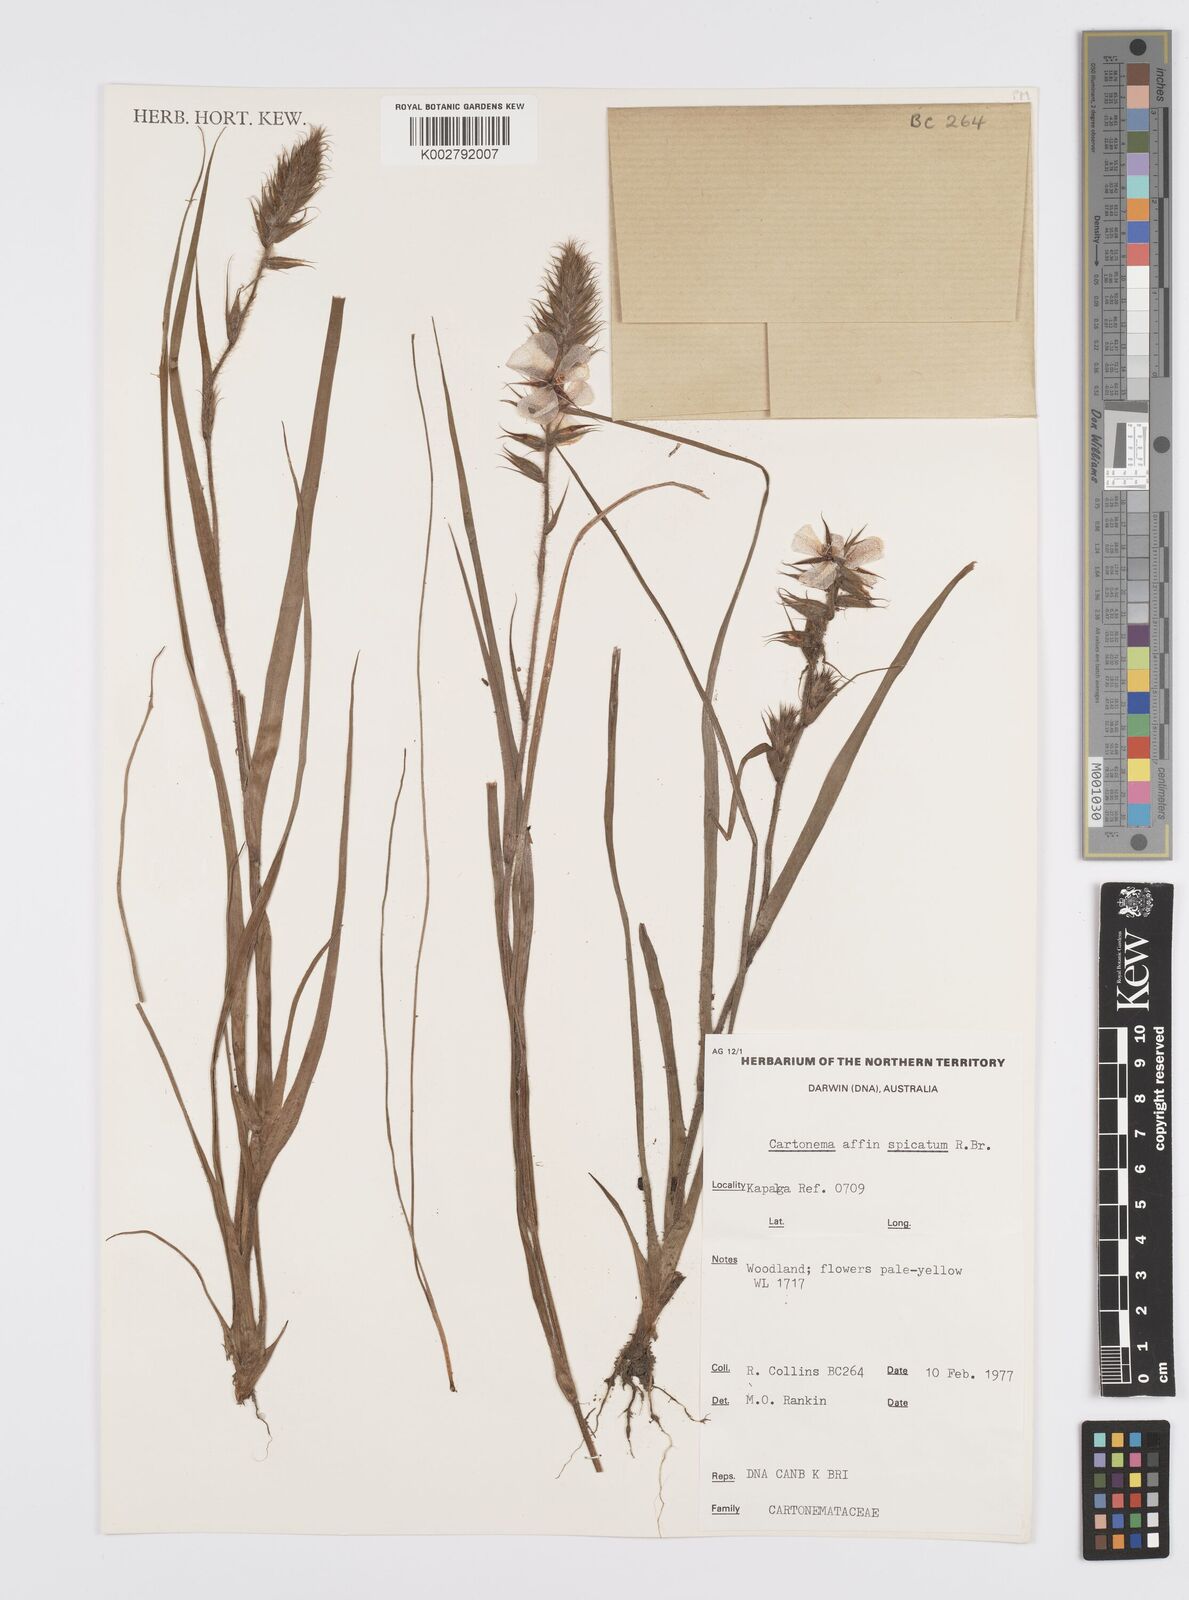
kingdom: Plantae
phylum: Tracheophyta
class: Liliopsida
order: Commelinales
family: Commelinaceae
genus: Cartonema
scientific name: Cartonema spicatum
